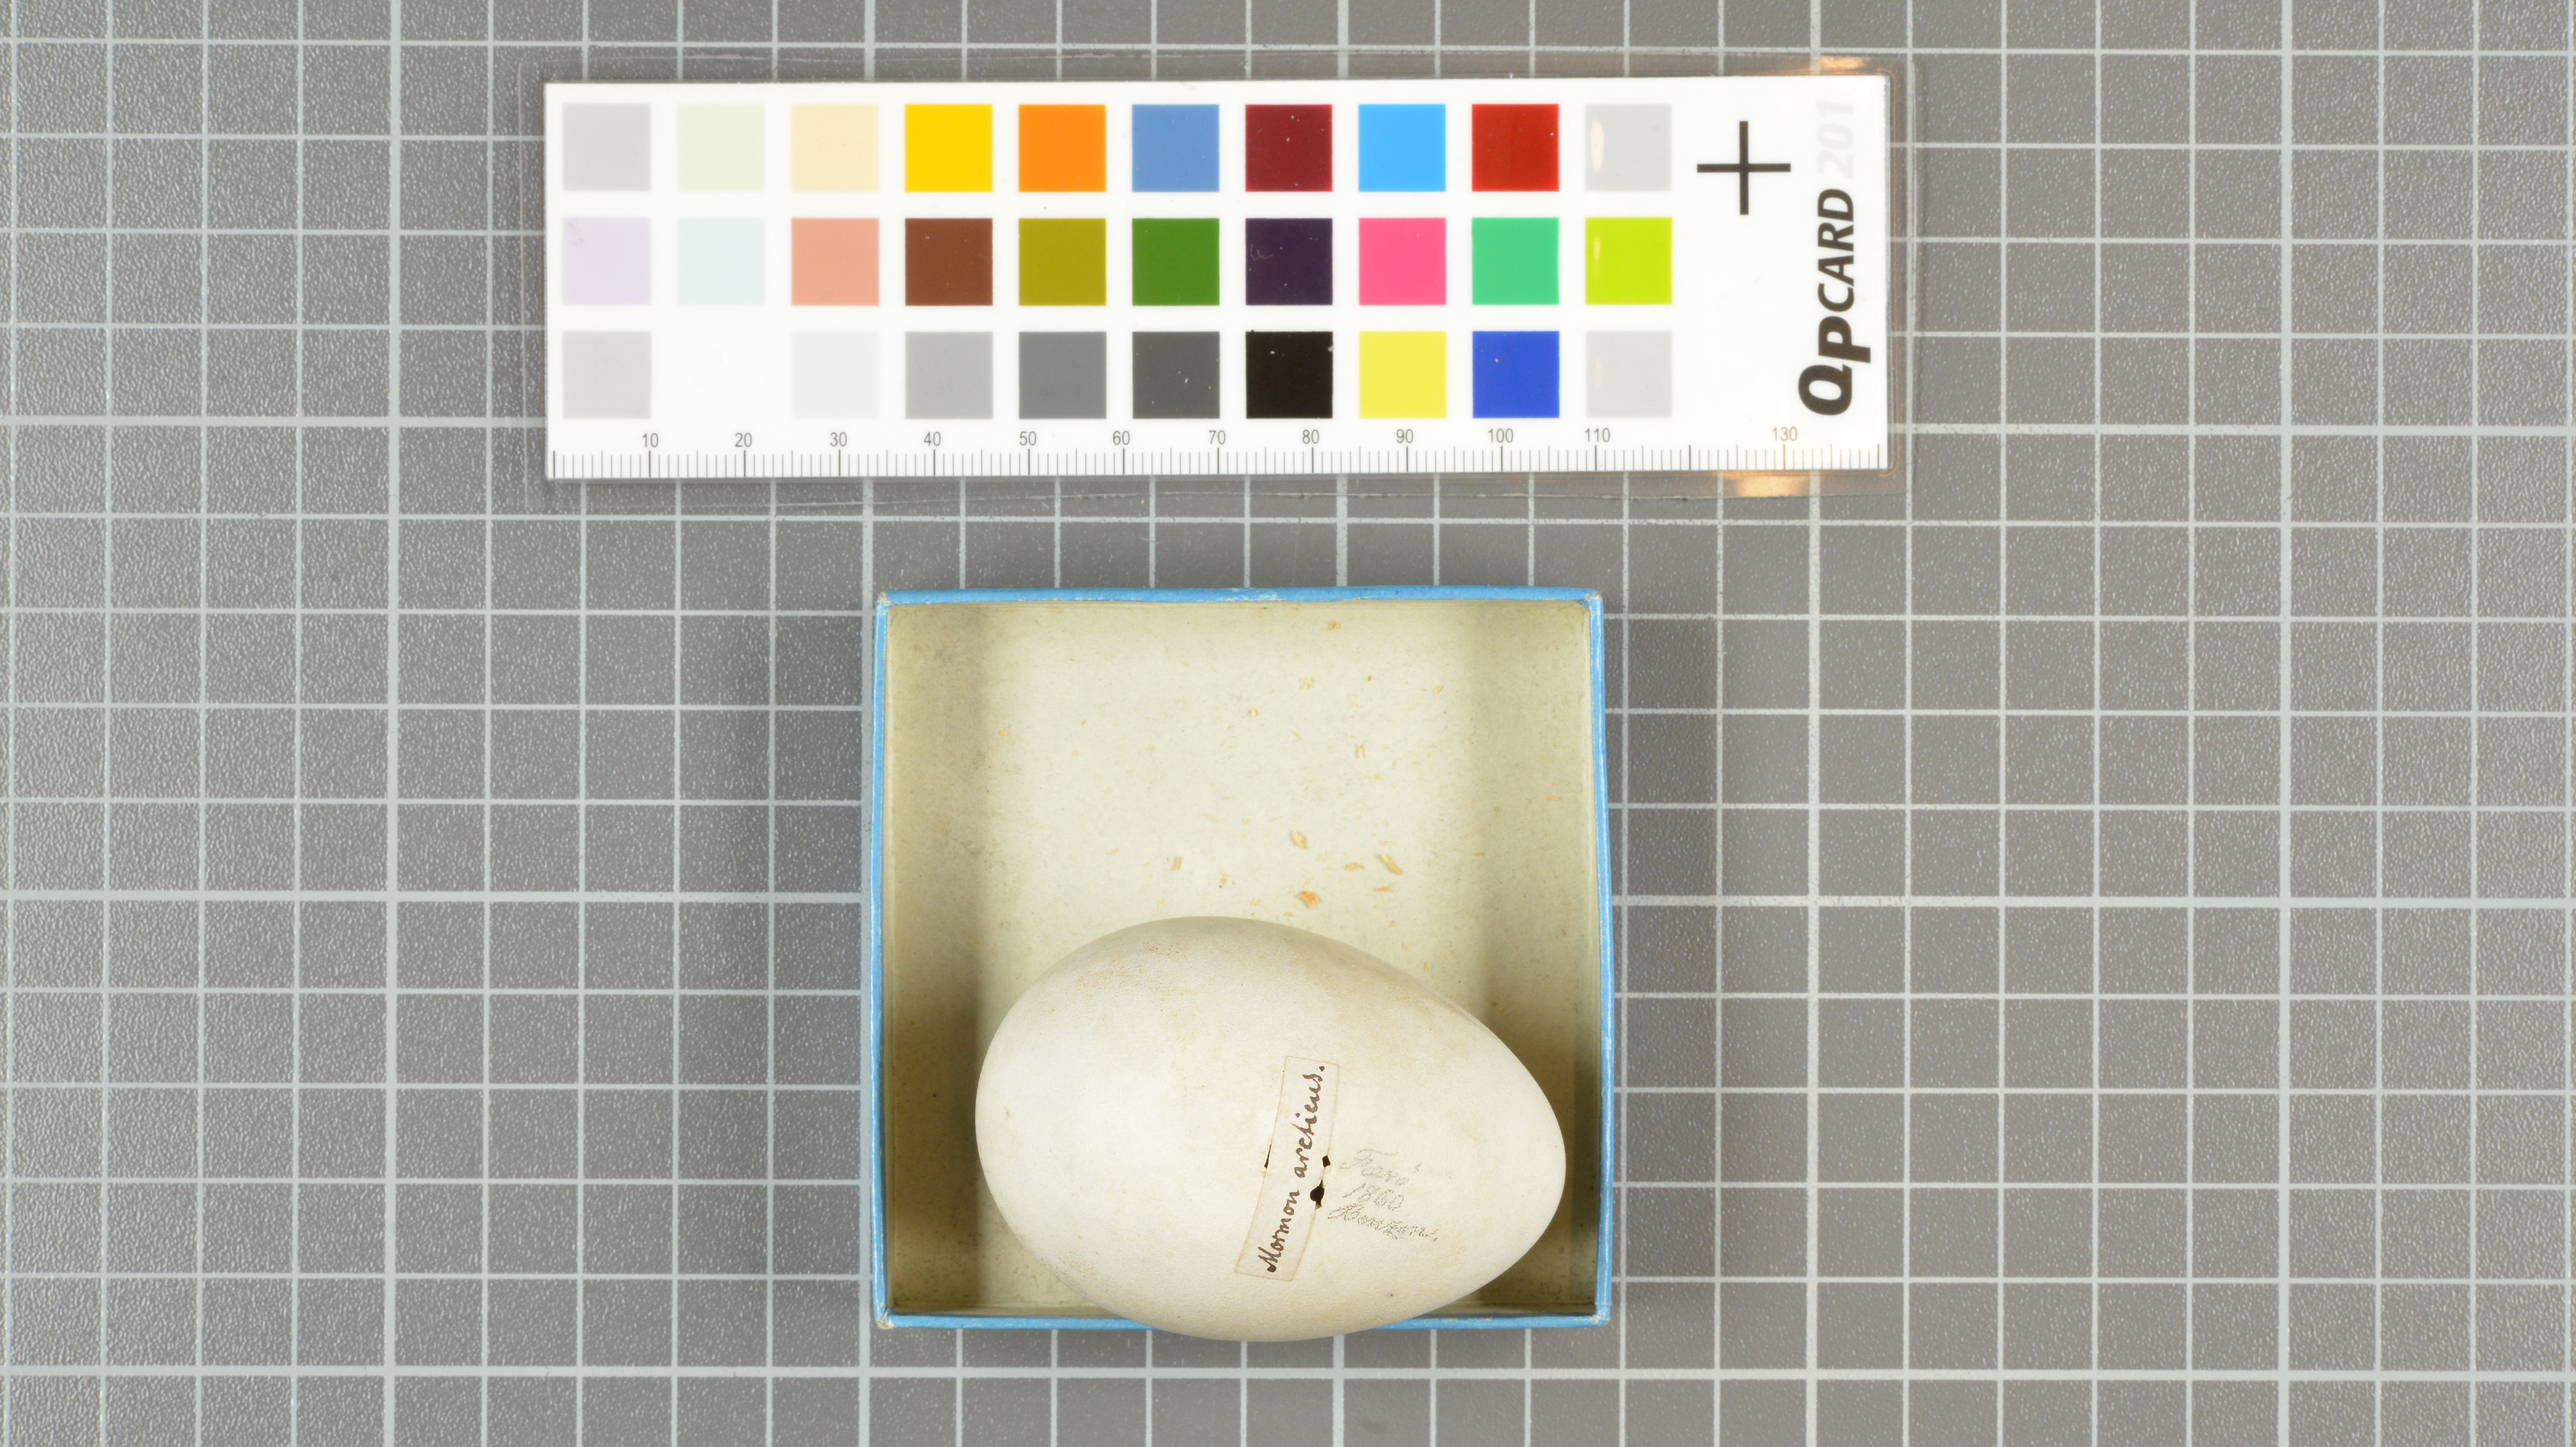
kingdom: Animalia
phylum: Chordata
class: Aves
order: Charadriiformes
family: Alcidae
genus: Fratercula
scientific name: Fratercula arctica
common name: Atlantic puffin
